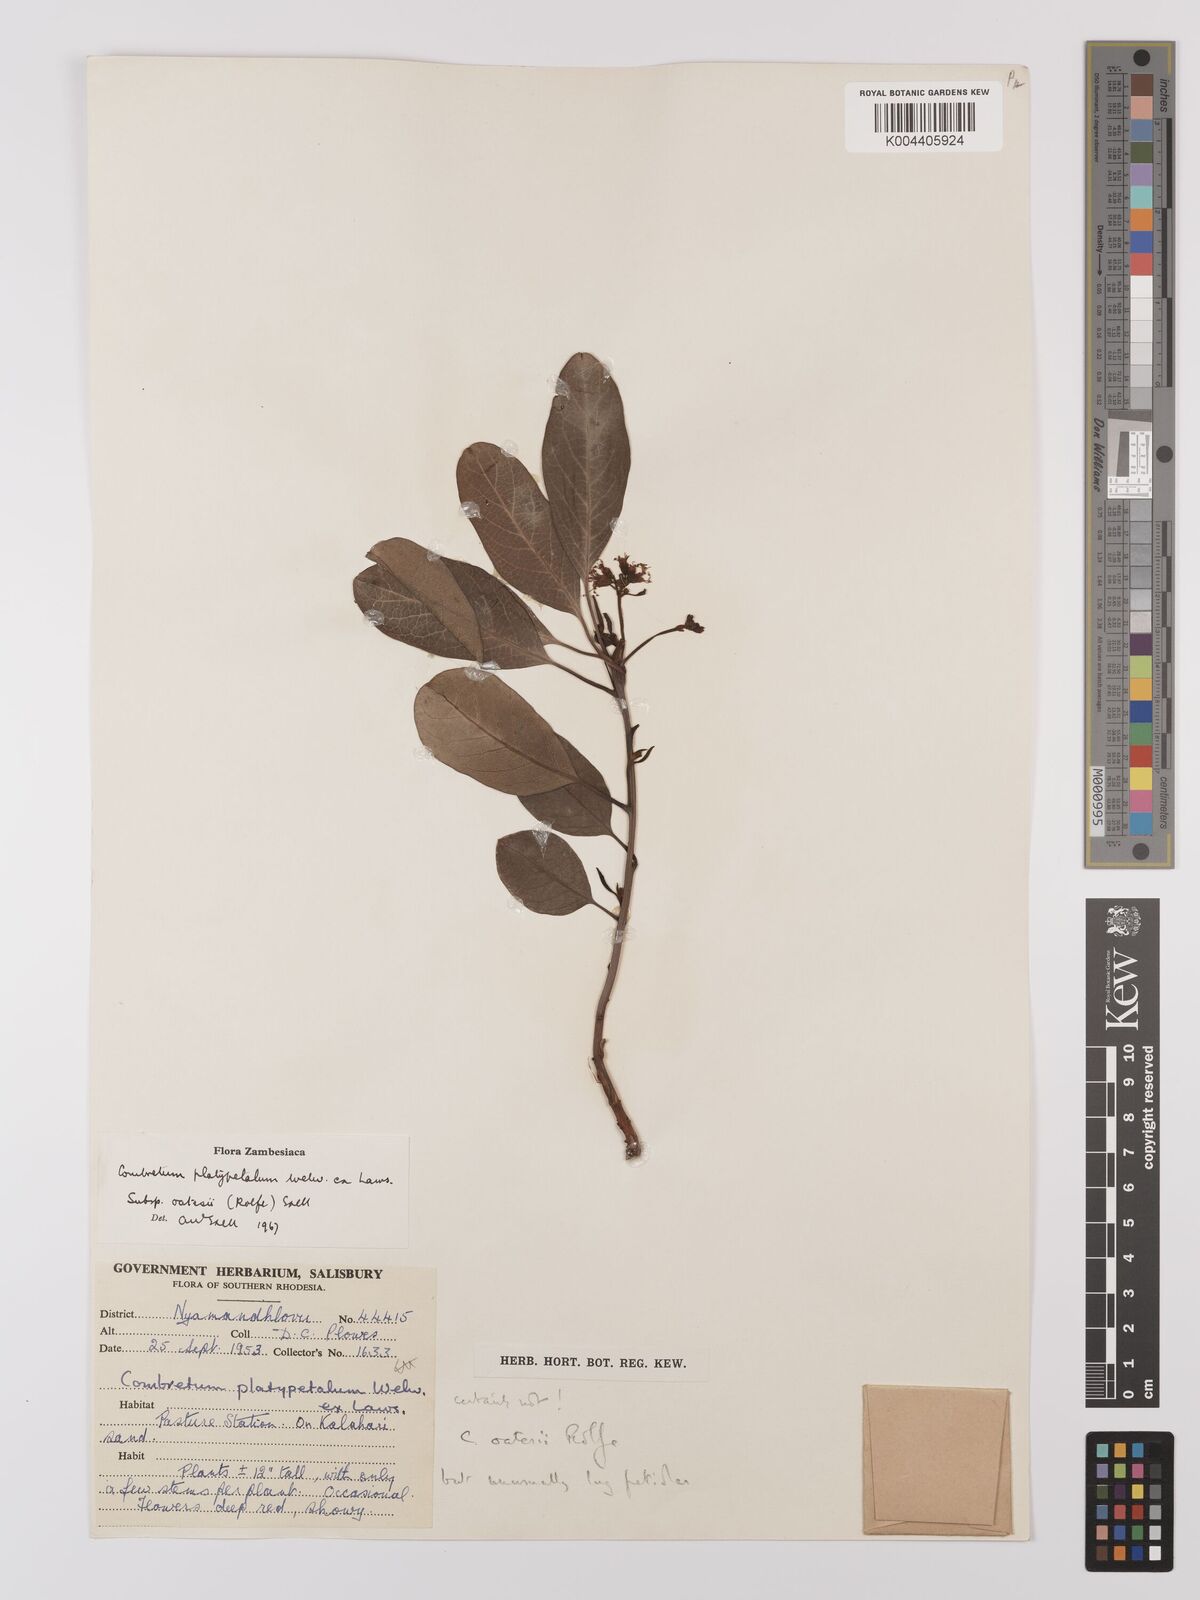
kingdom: Plantae
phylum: Tracheophyta
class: Magnoliopsida
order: Myrtales
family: Combretaceae
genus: Combretum
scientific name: Combretum oatesii
